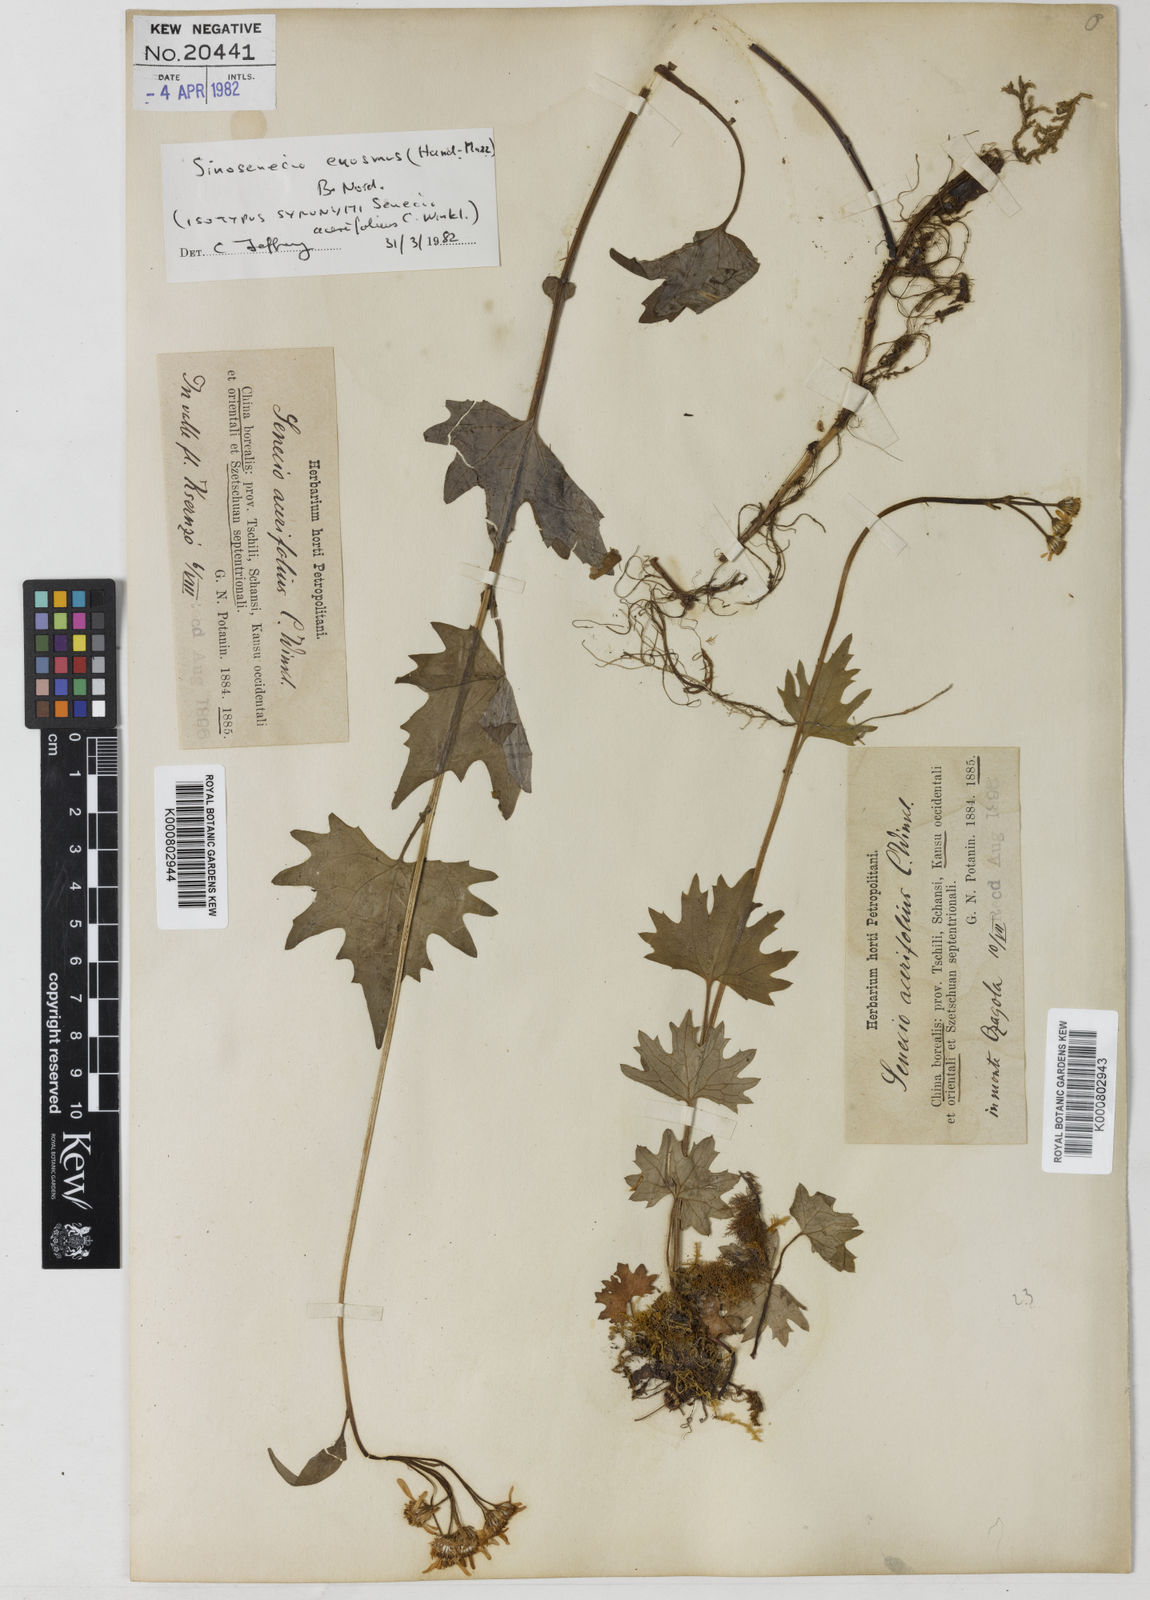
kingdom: Plantae
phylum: Tracheophyta
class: Magnoliopsida
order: Asterales
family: Asteraceae
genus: Sinosenecio
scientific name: Sinosenecio euosmus
